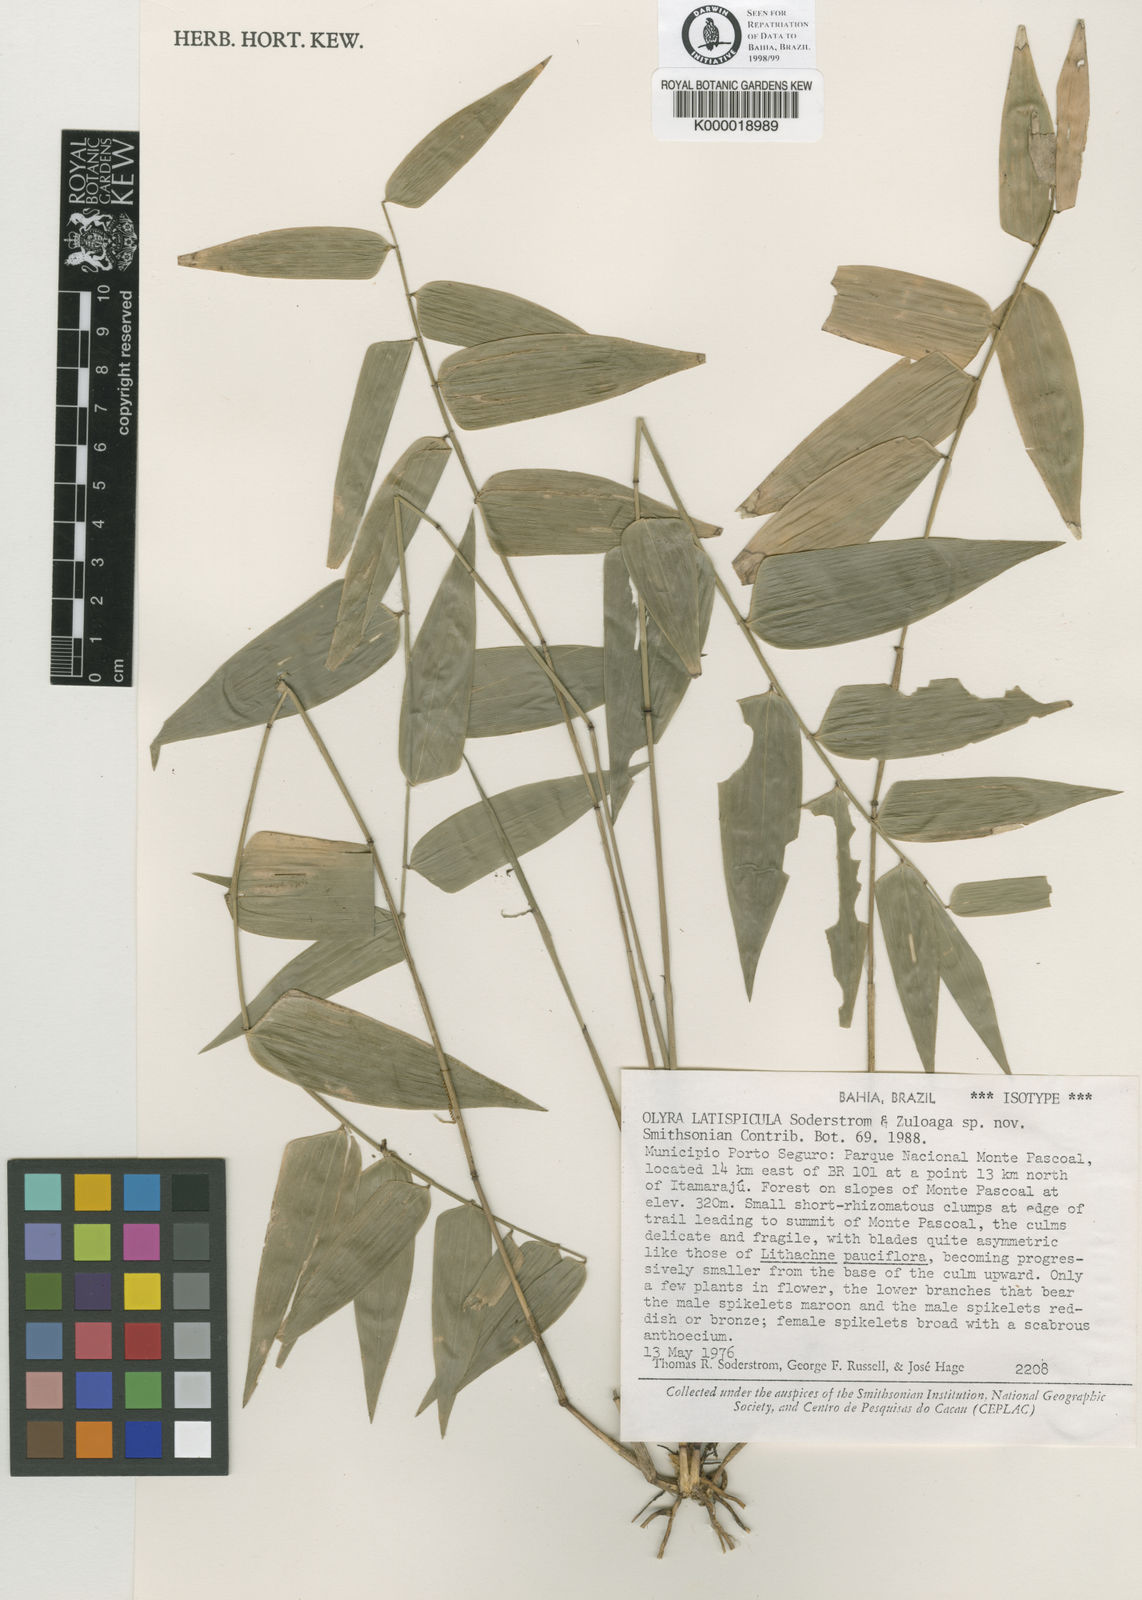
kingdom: Plantae
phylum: Tracheophyta
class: Liliopsida
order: Poales
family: Poaceae
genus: Olyra
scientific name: Olyra latispicula
